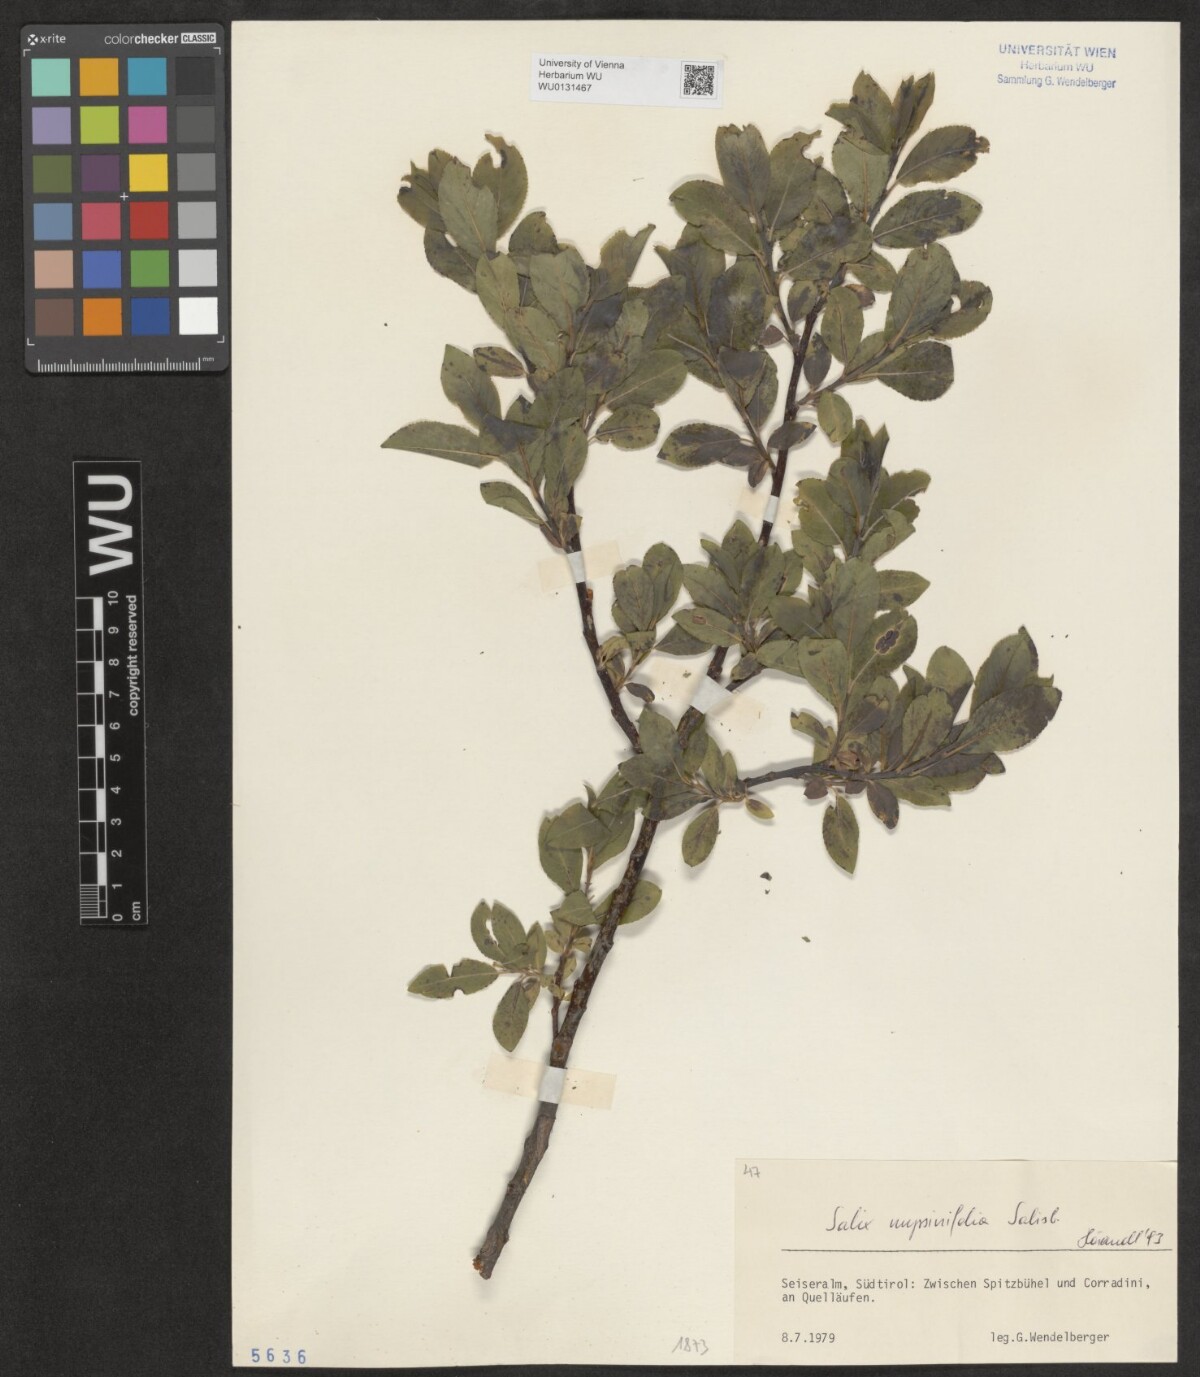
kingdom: Plantae
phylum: Tracheophyta
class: Magnoliopsida
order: Malpighiales
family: Salicaceae
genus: Salix
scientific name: Salix myrsinifolia
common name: Dark-leaved willow
